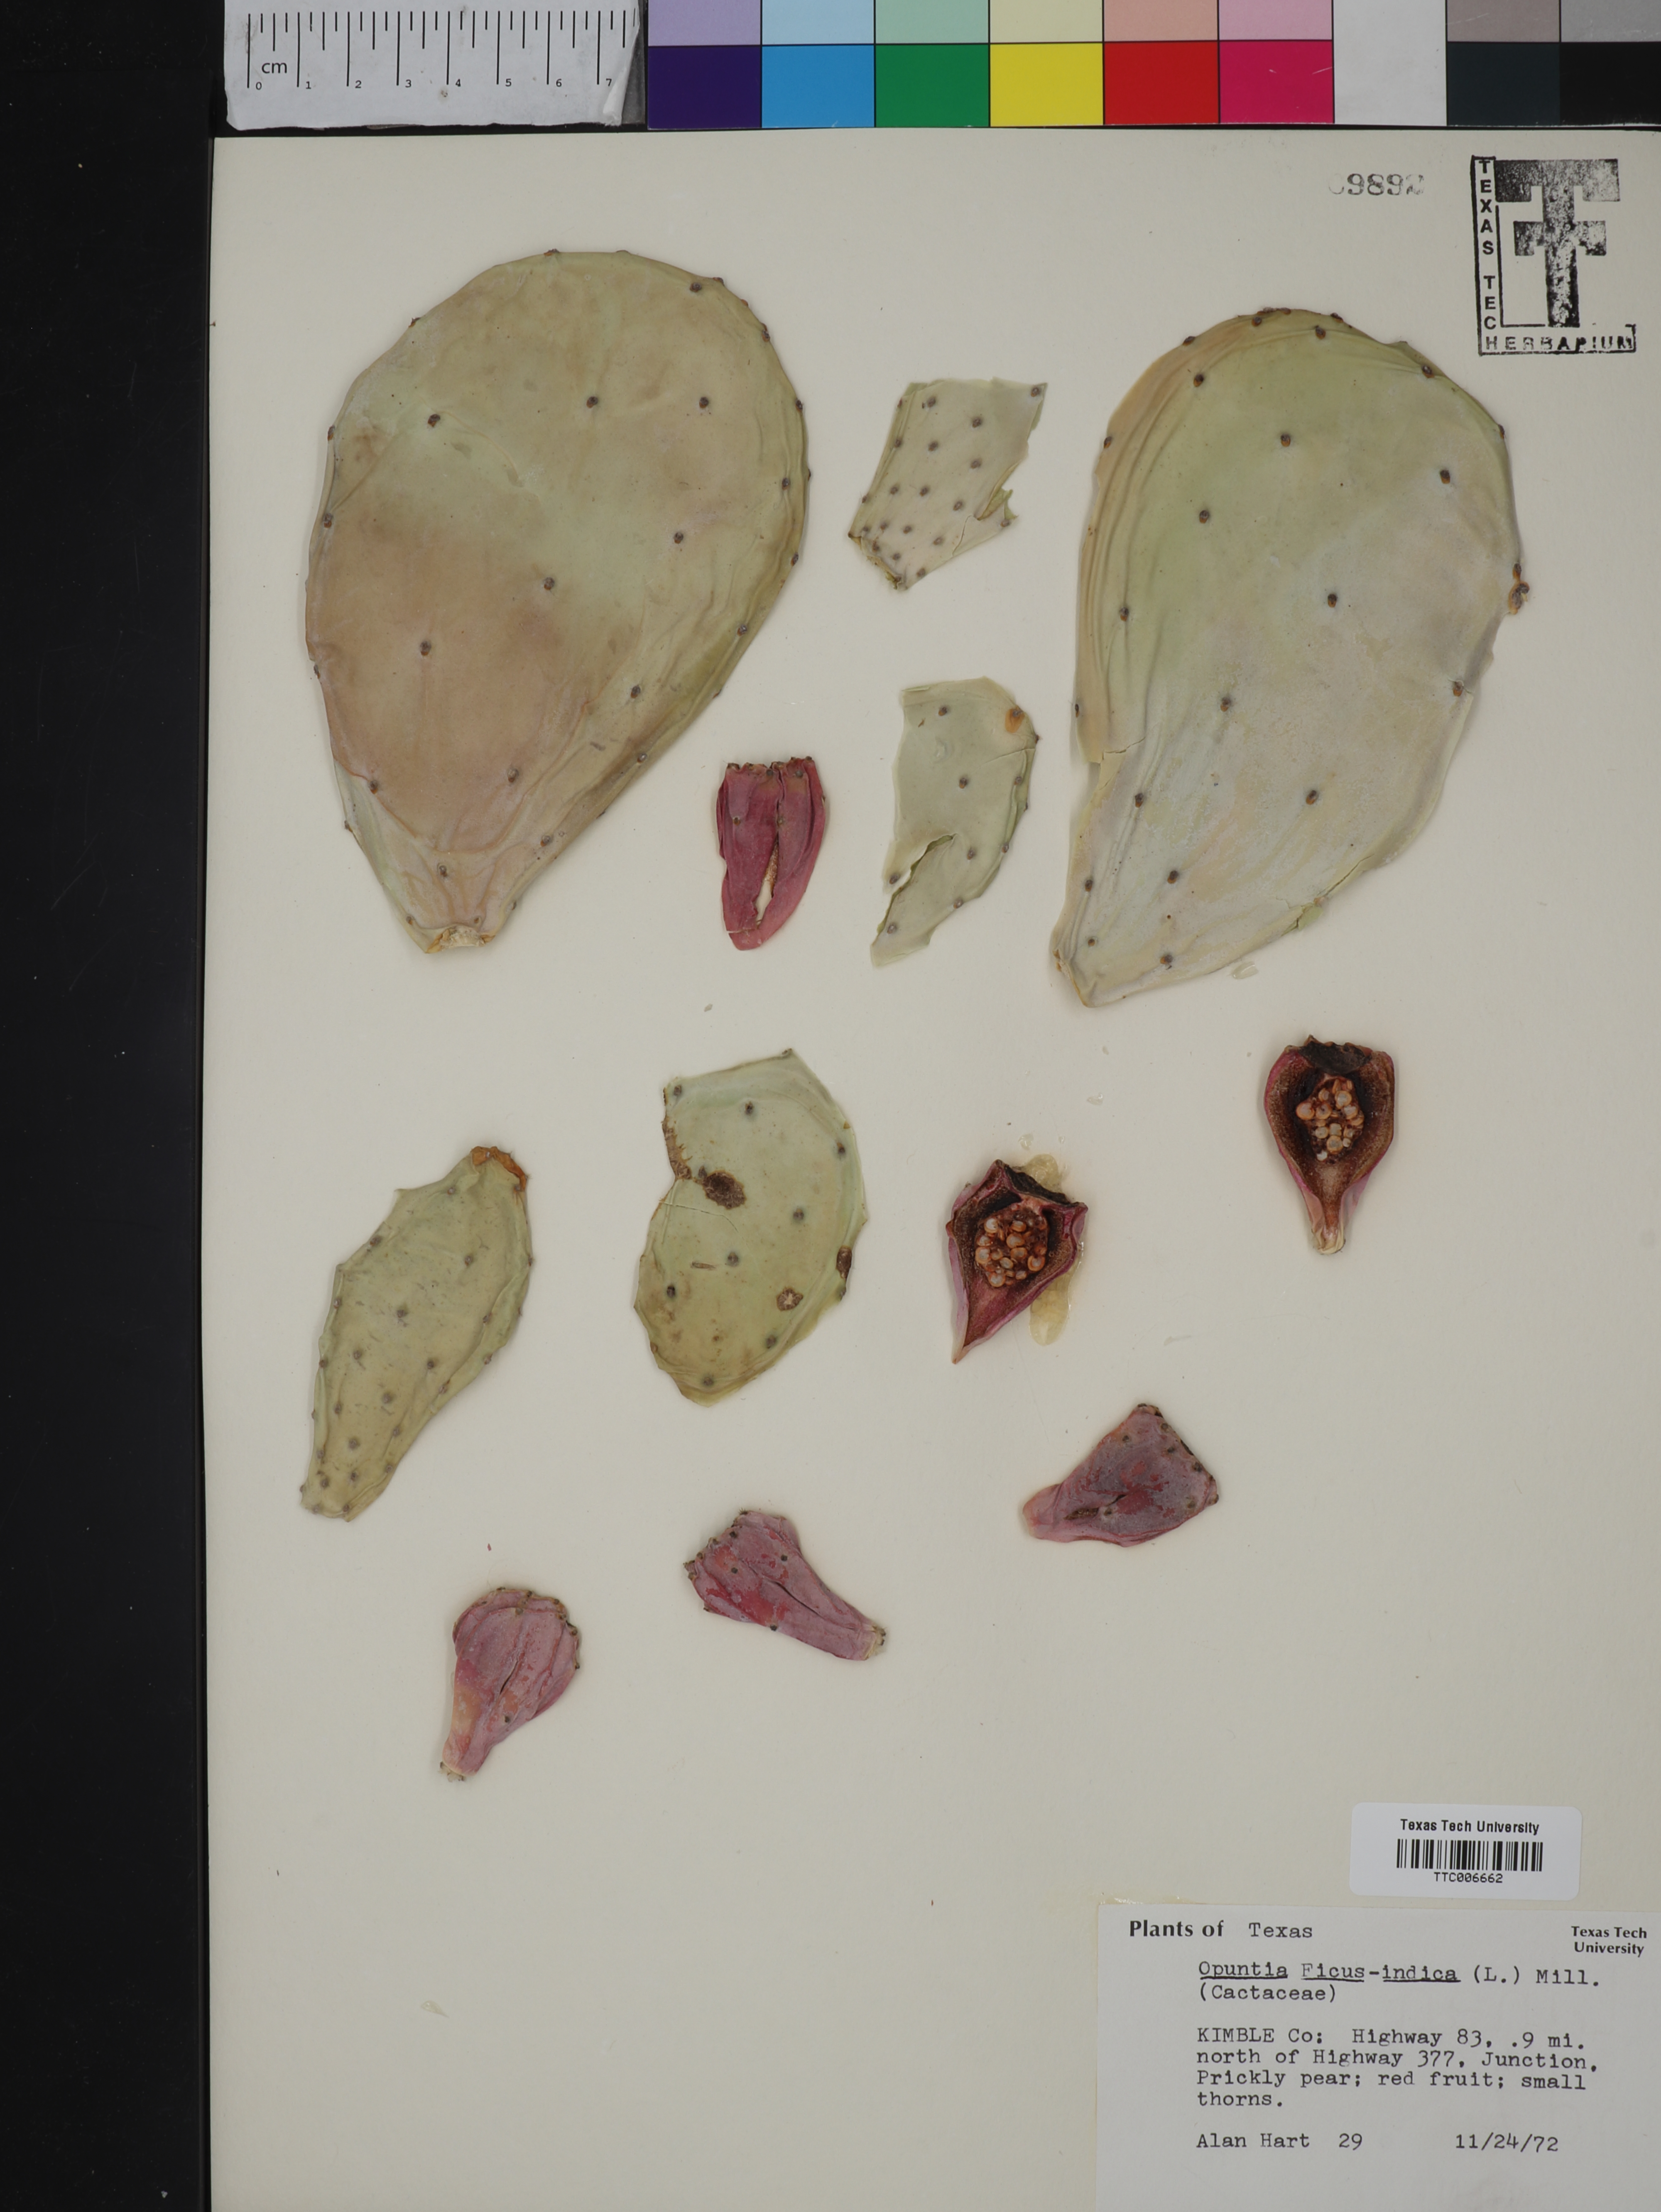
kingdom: Plantae
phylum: Tracheophyta
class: Magnoliopsida
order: Caryophyllales
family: Cactaceae
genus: Opuntia
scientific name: Opuntia ficus-indica
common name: Barbary fig
